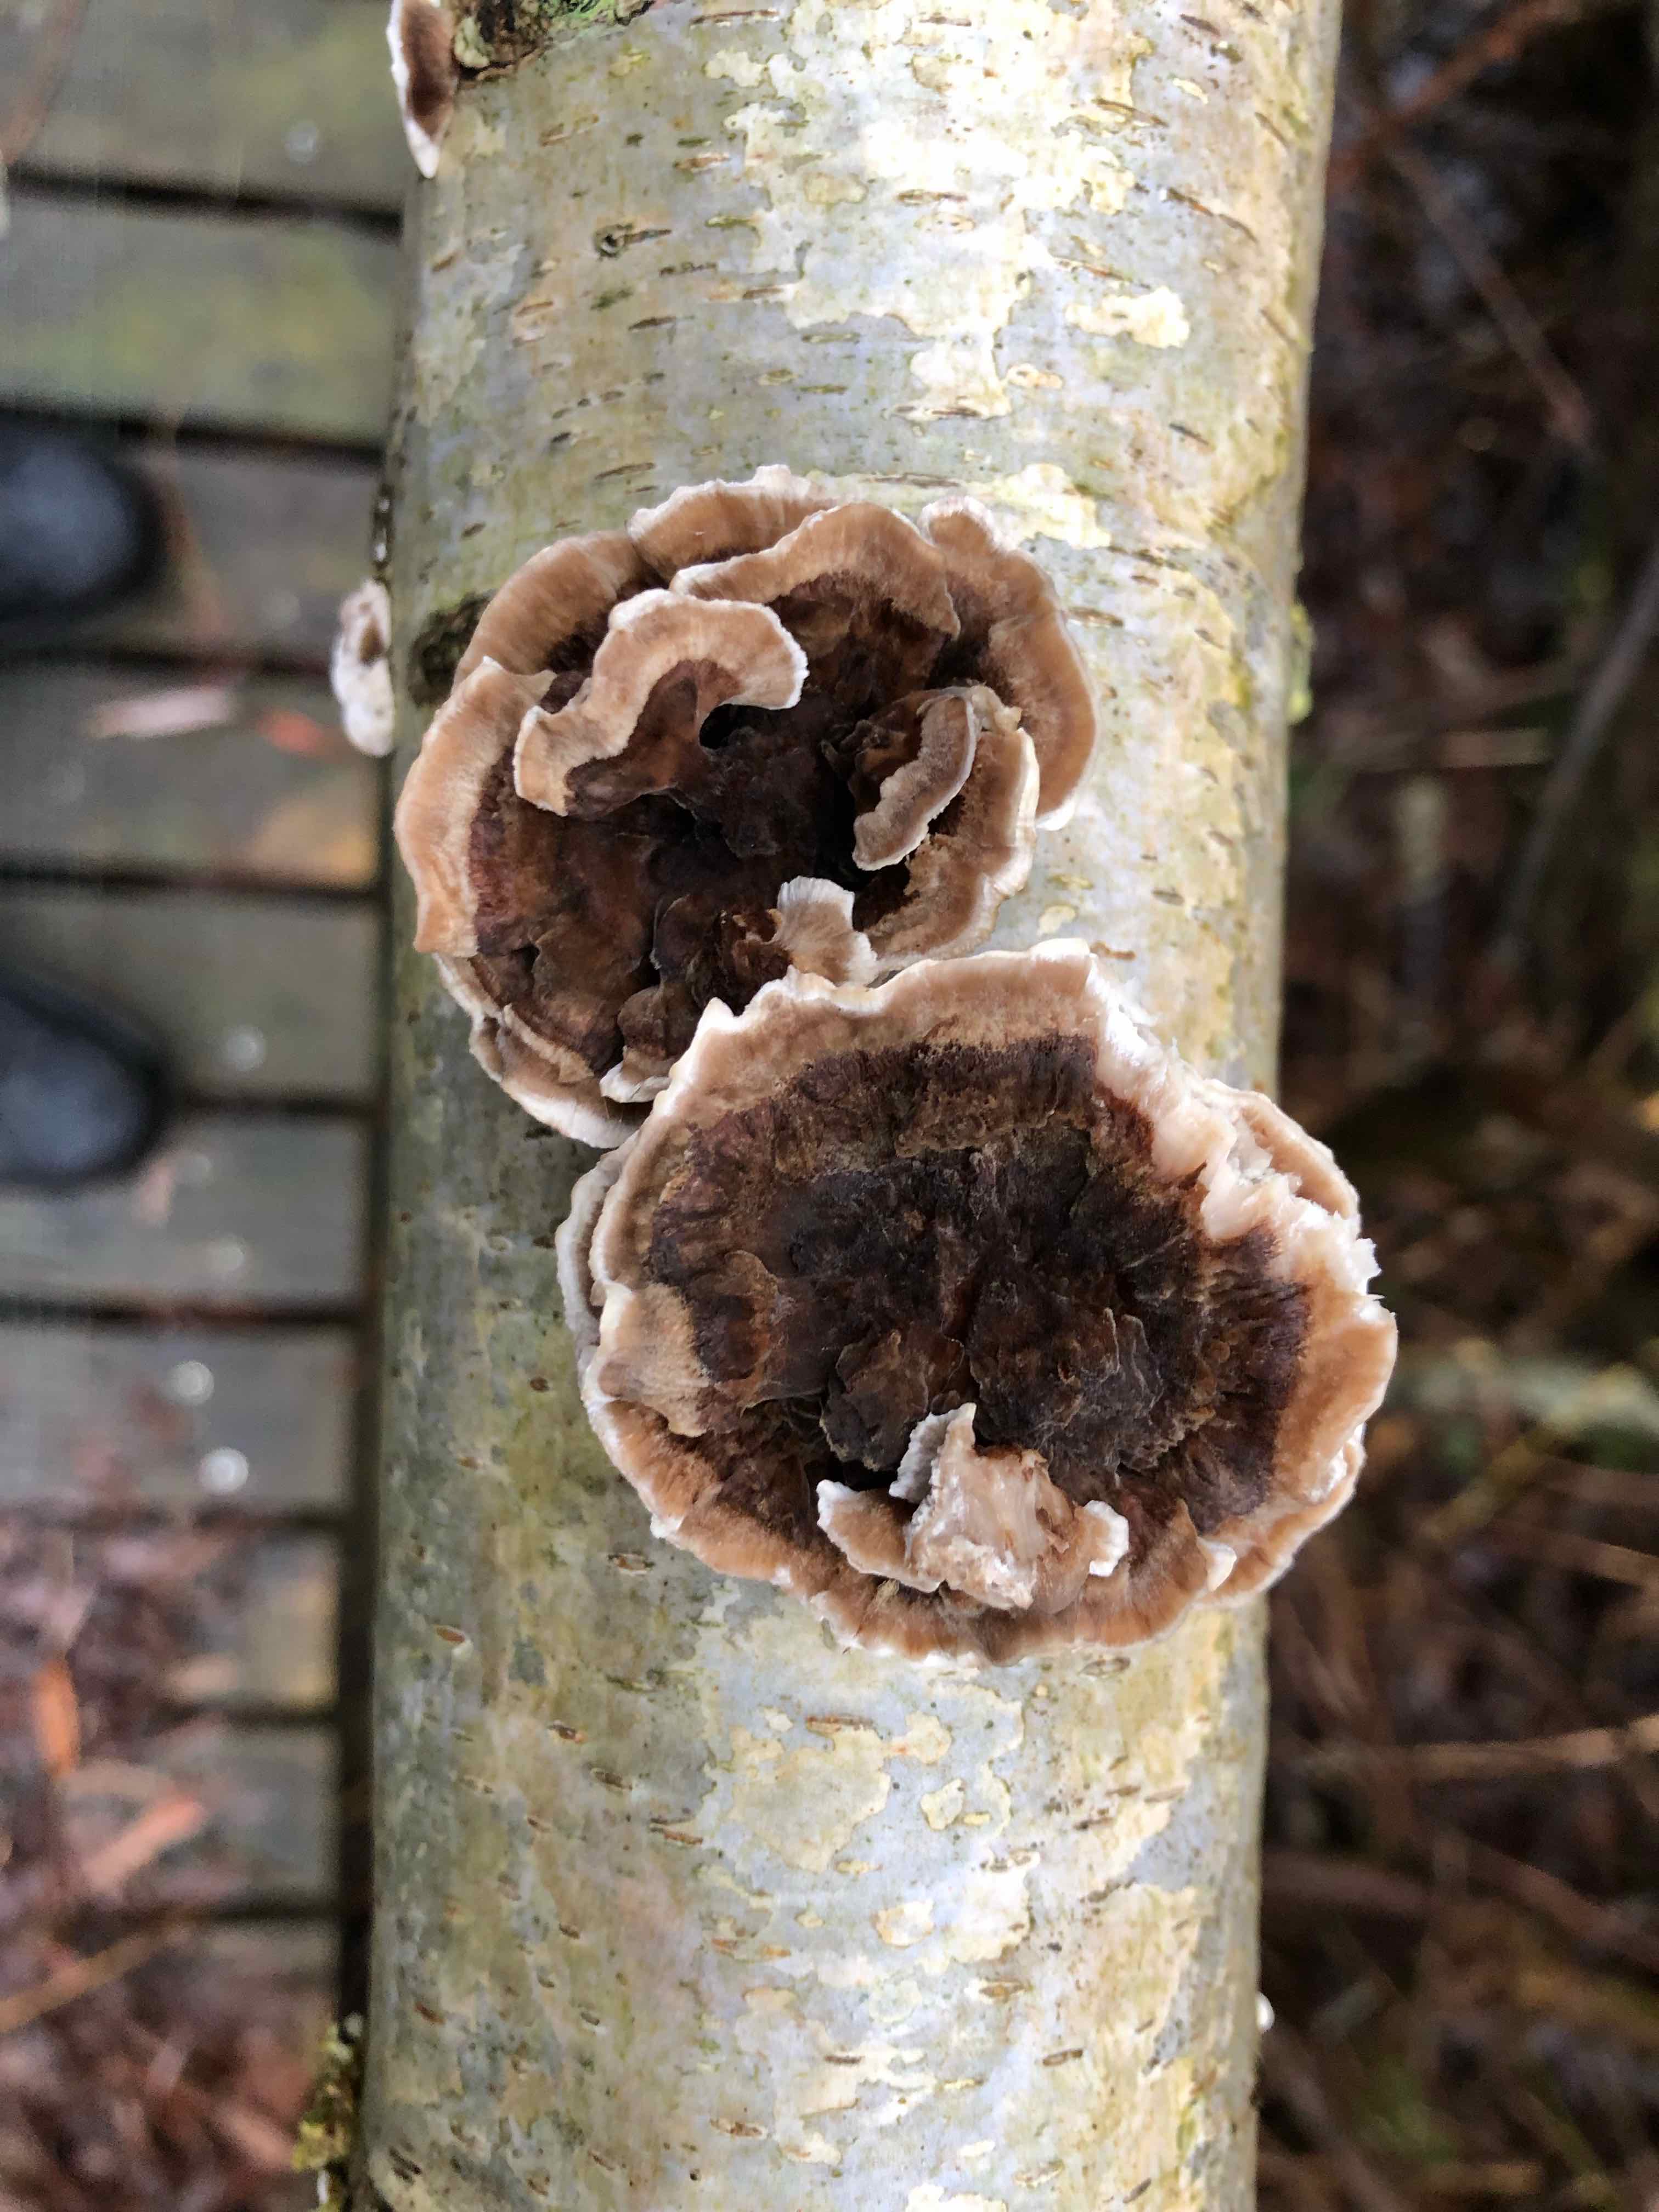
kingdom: Fungi
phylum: Basidiomycota
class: Agaricomycetes
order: Polyporales
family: Polyporaceae
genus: Trametes
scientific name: Trametes versicolor
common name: broget læderporesvamp
